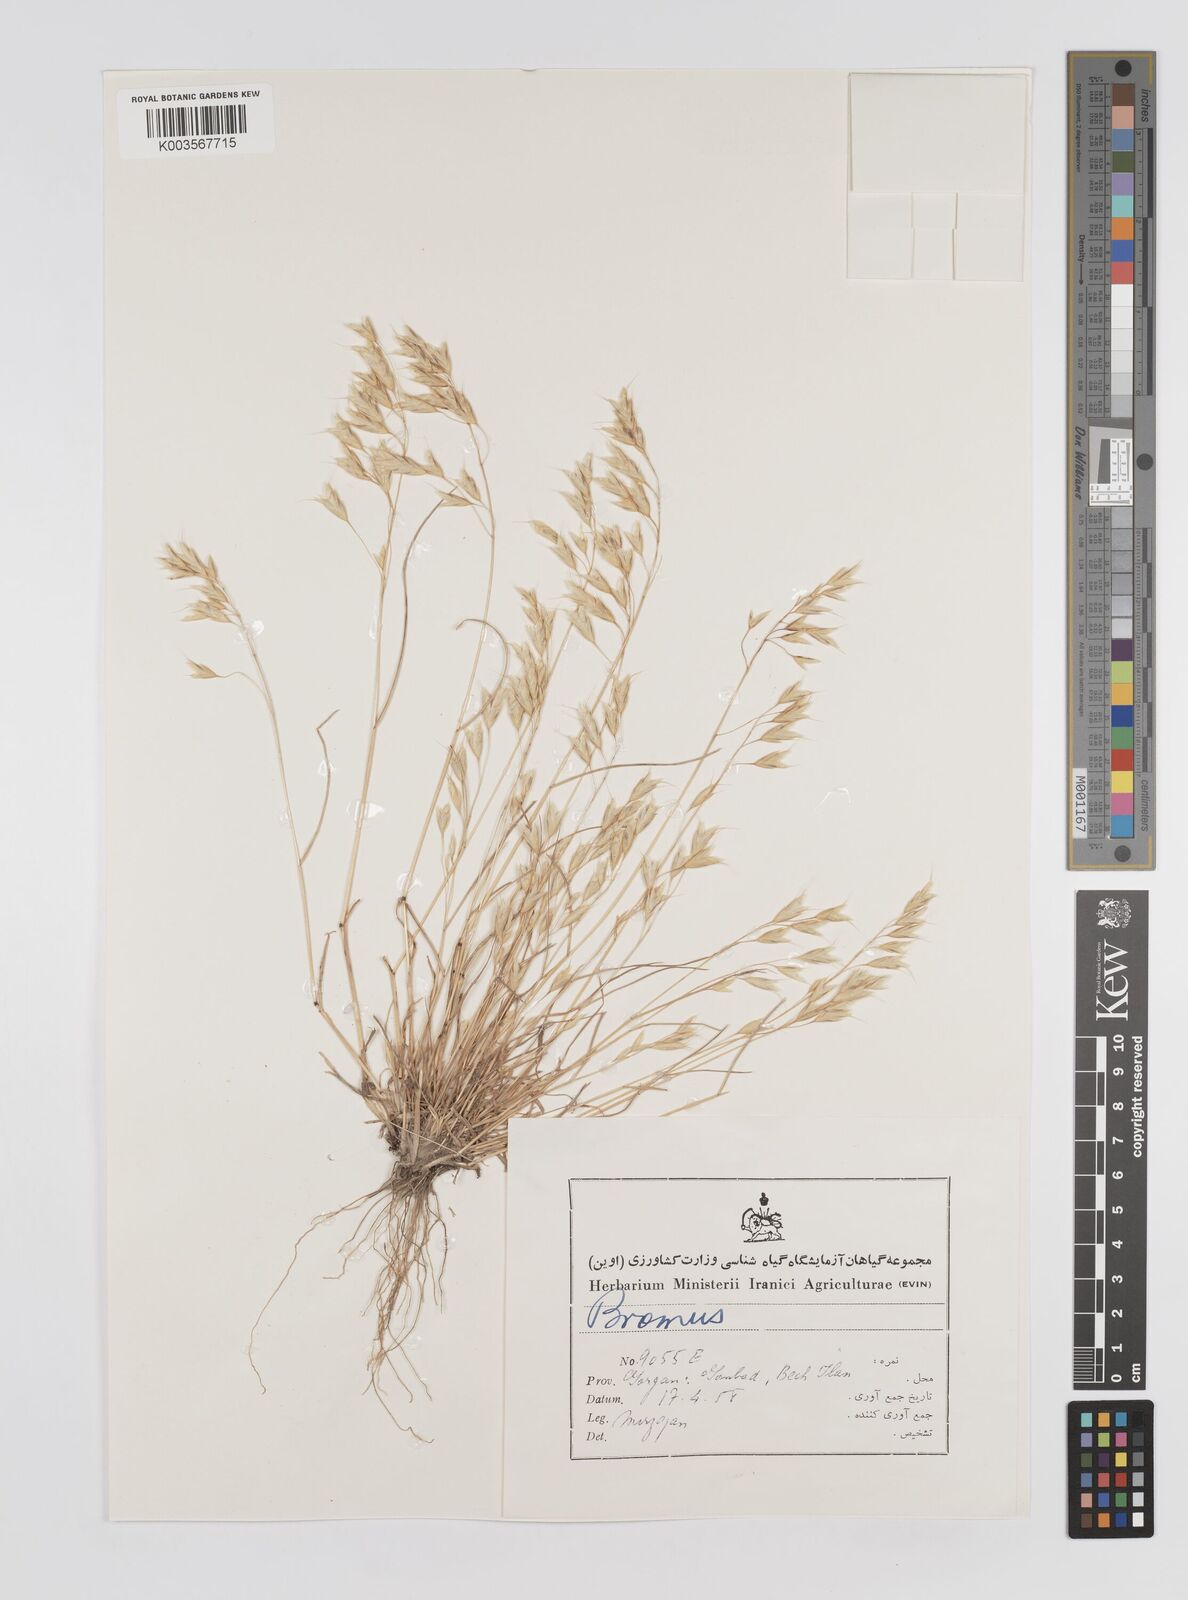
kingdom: Plantae
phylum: Tracheophyta
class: Liliopsida
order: Poales
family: Poaceae
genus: Bromus
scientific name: Bromus
